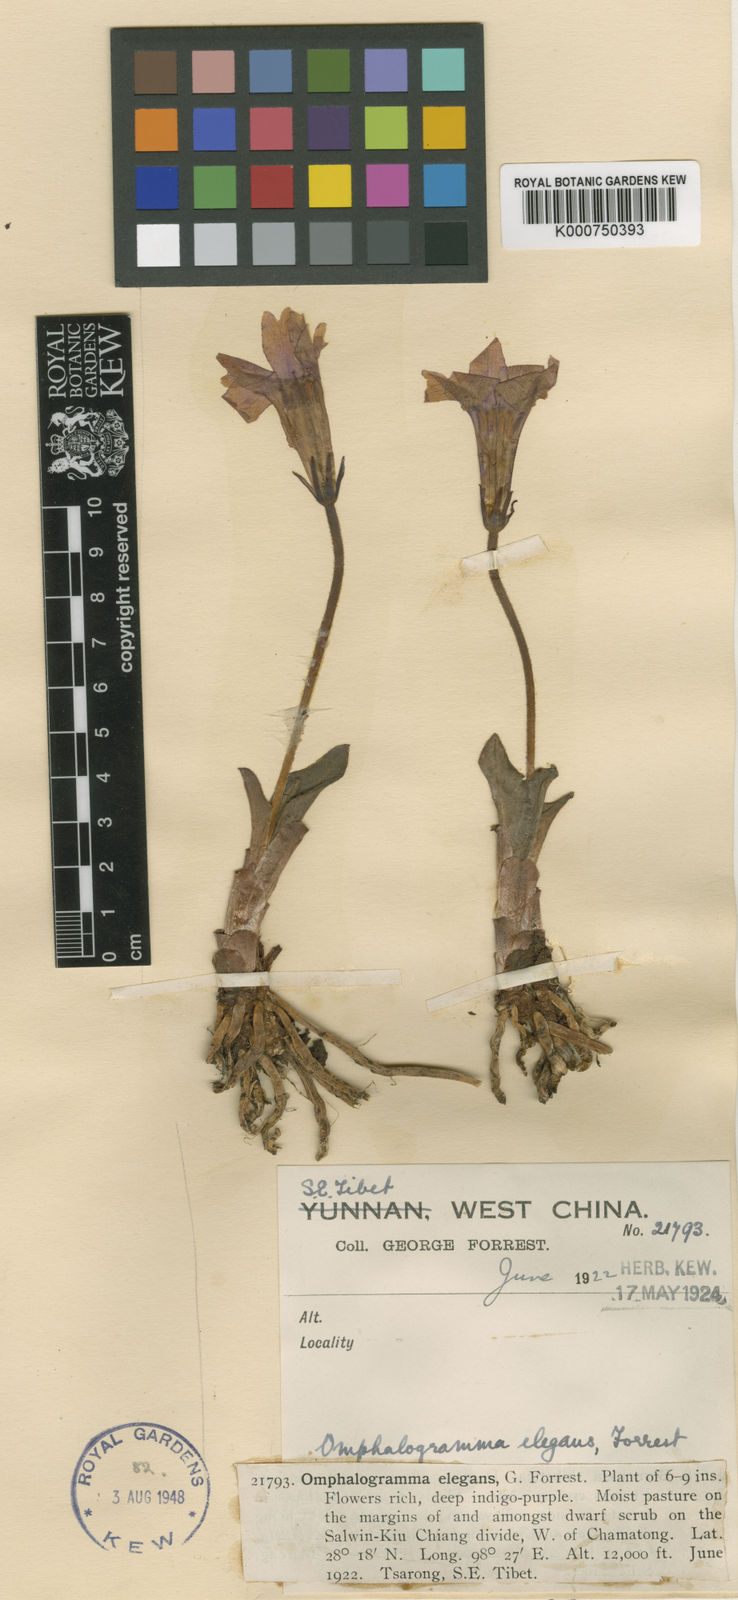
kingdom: Plantae
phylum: Tracheophyta
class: Magnoliopsida
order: Ericales
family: Primulaceae
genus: Omphalogramma
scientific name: Omphalogramma elegans
